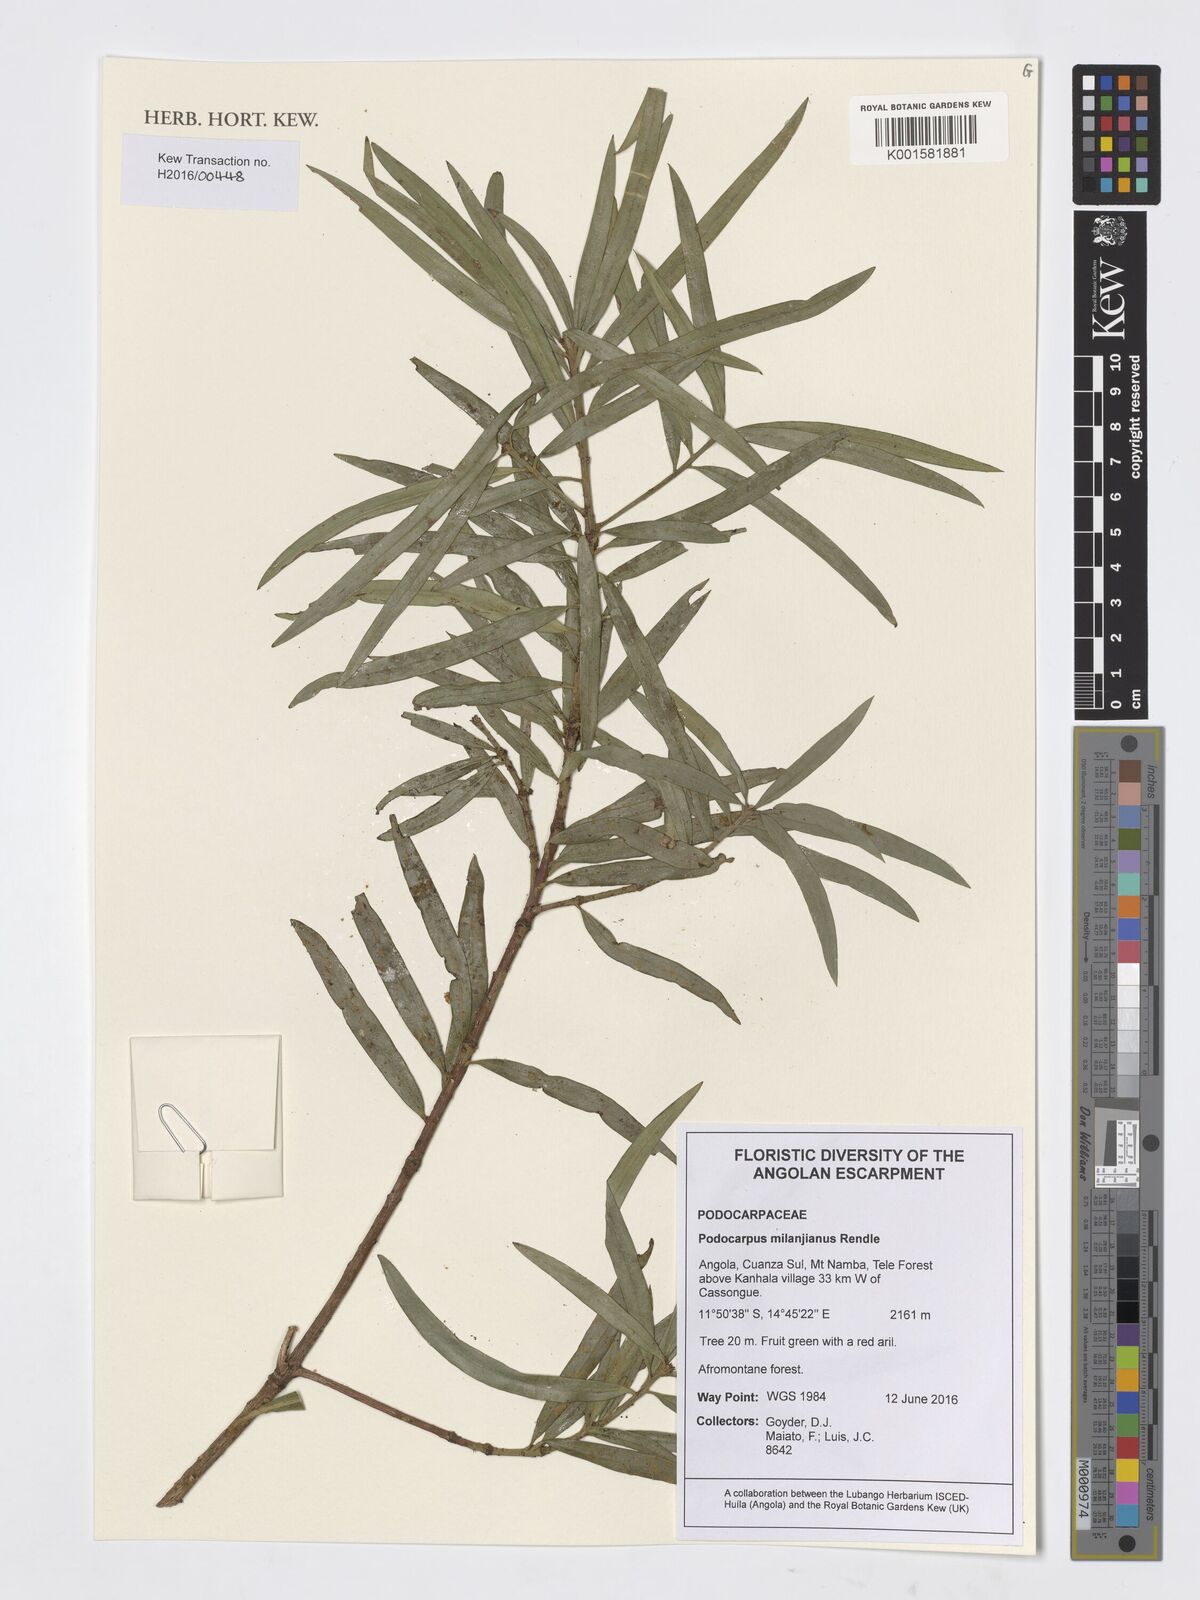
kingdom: Plantae
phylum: Tracheophyta
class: Pinopsida
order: Pinales
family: Podocarpaceae
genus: Podocarpus
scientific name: Podocarpus milanjianus
